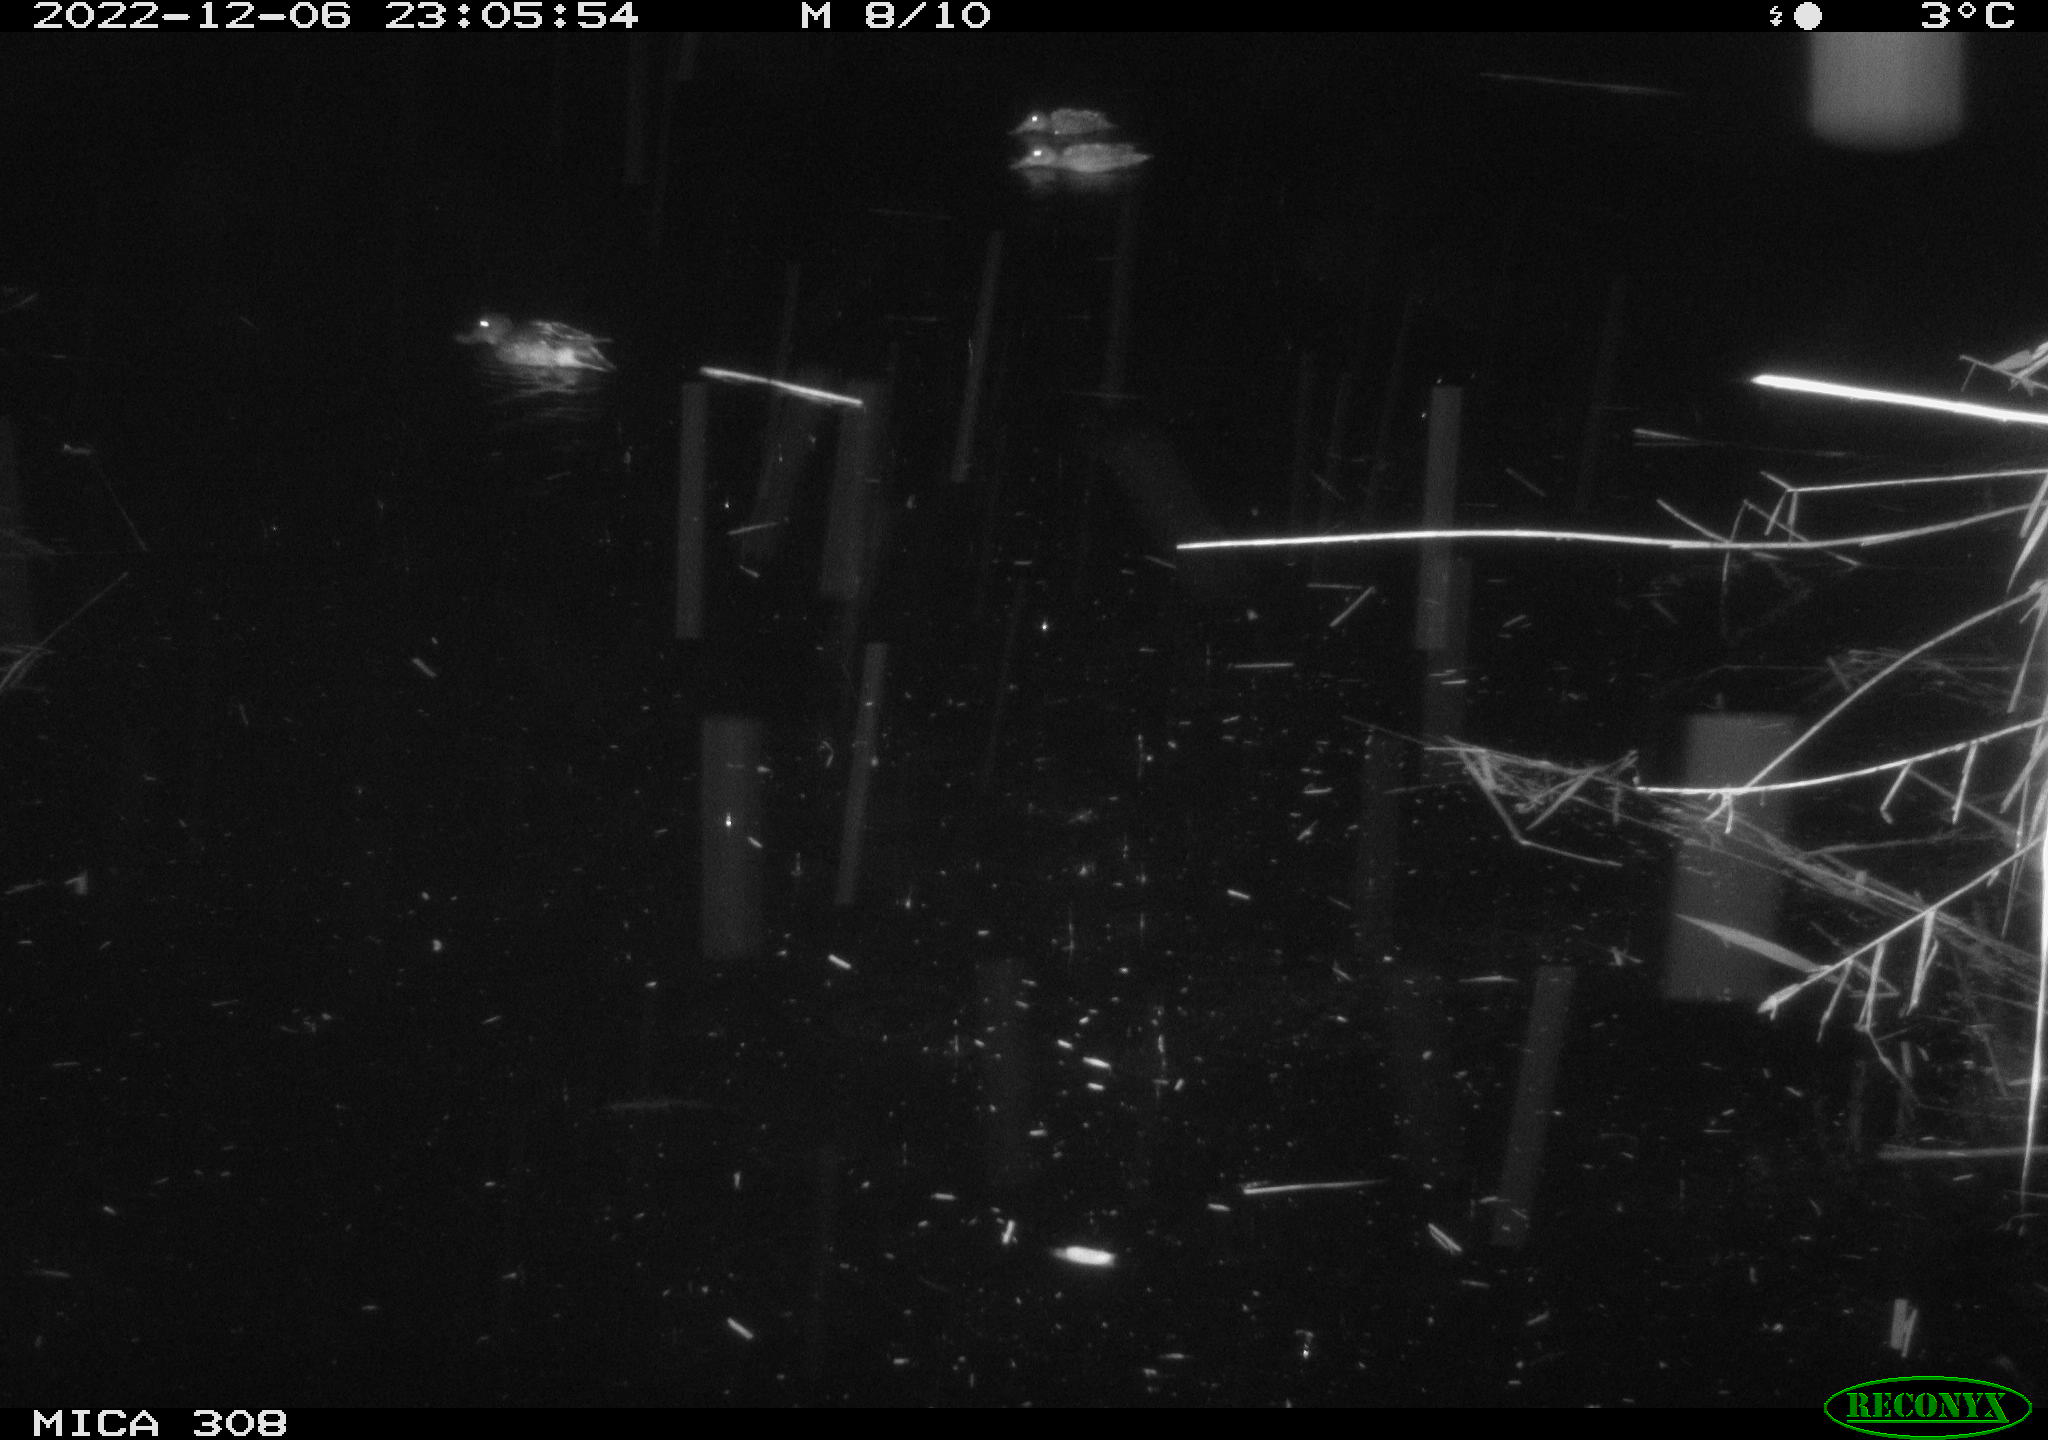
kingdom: Animalia
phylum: Chordata
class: Aves
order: Anseriformes
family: Anatidae
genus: Anas
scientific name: Anas
